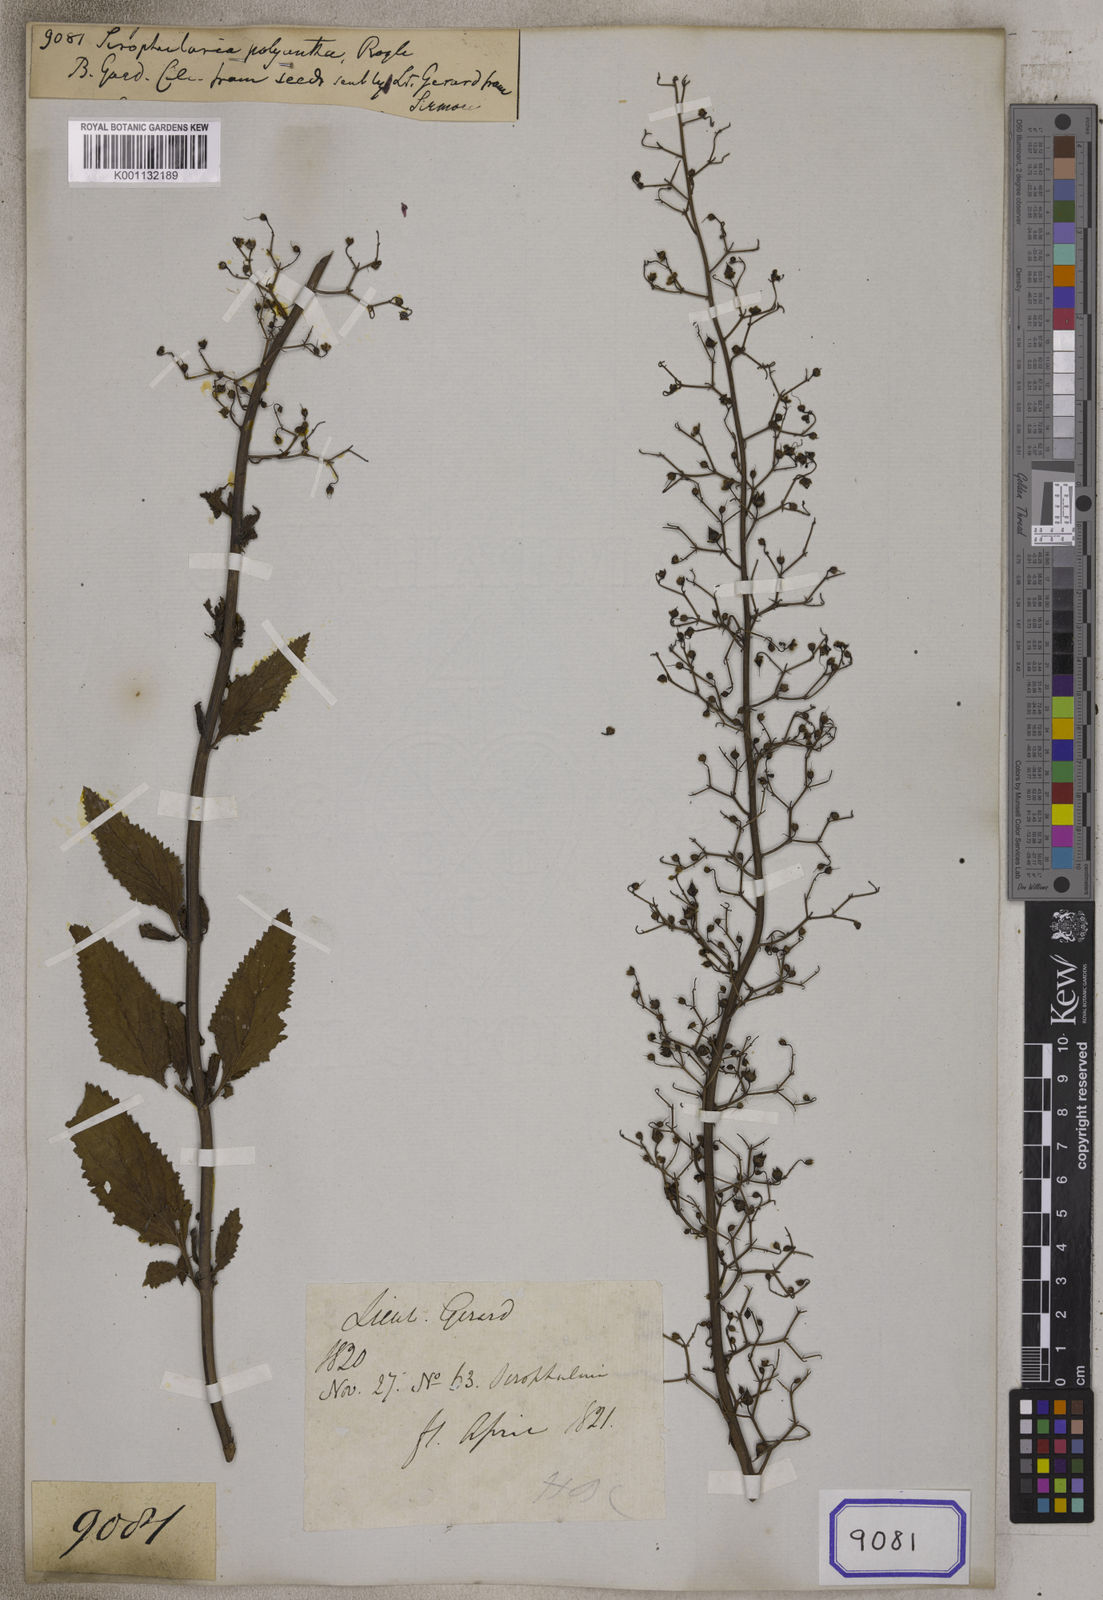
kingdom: Plantae
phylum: Tracheophyta
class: Magnoliopsida
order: Lamiales
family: Scrophulariaceae
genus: Scrophularia
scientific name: Scrophularia polyantha
